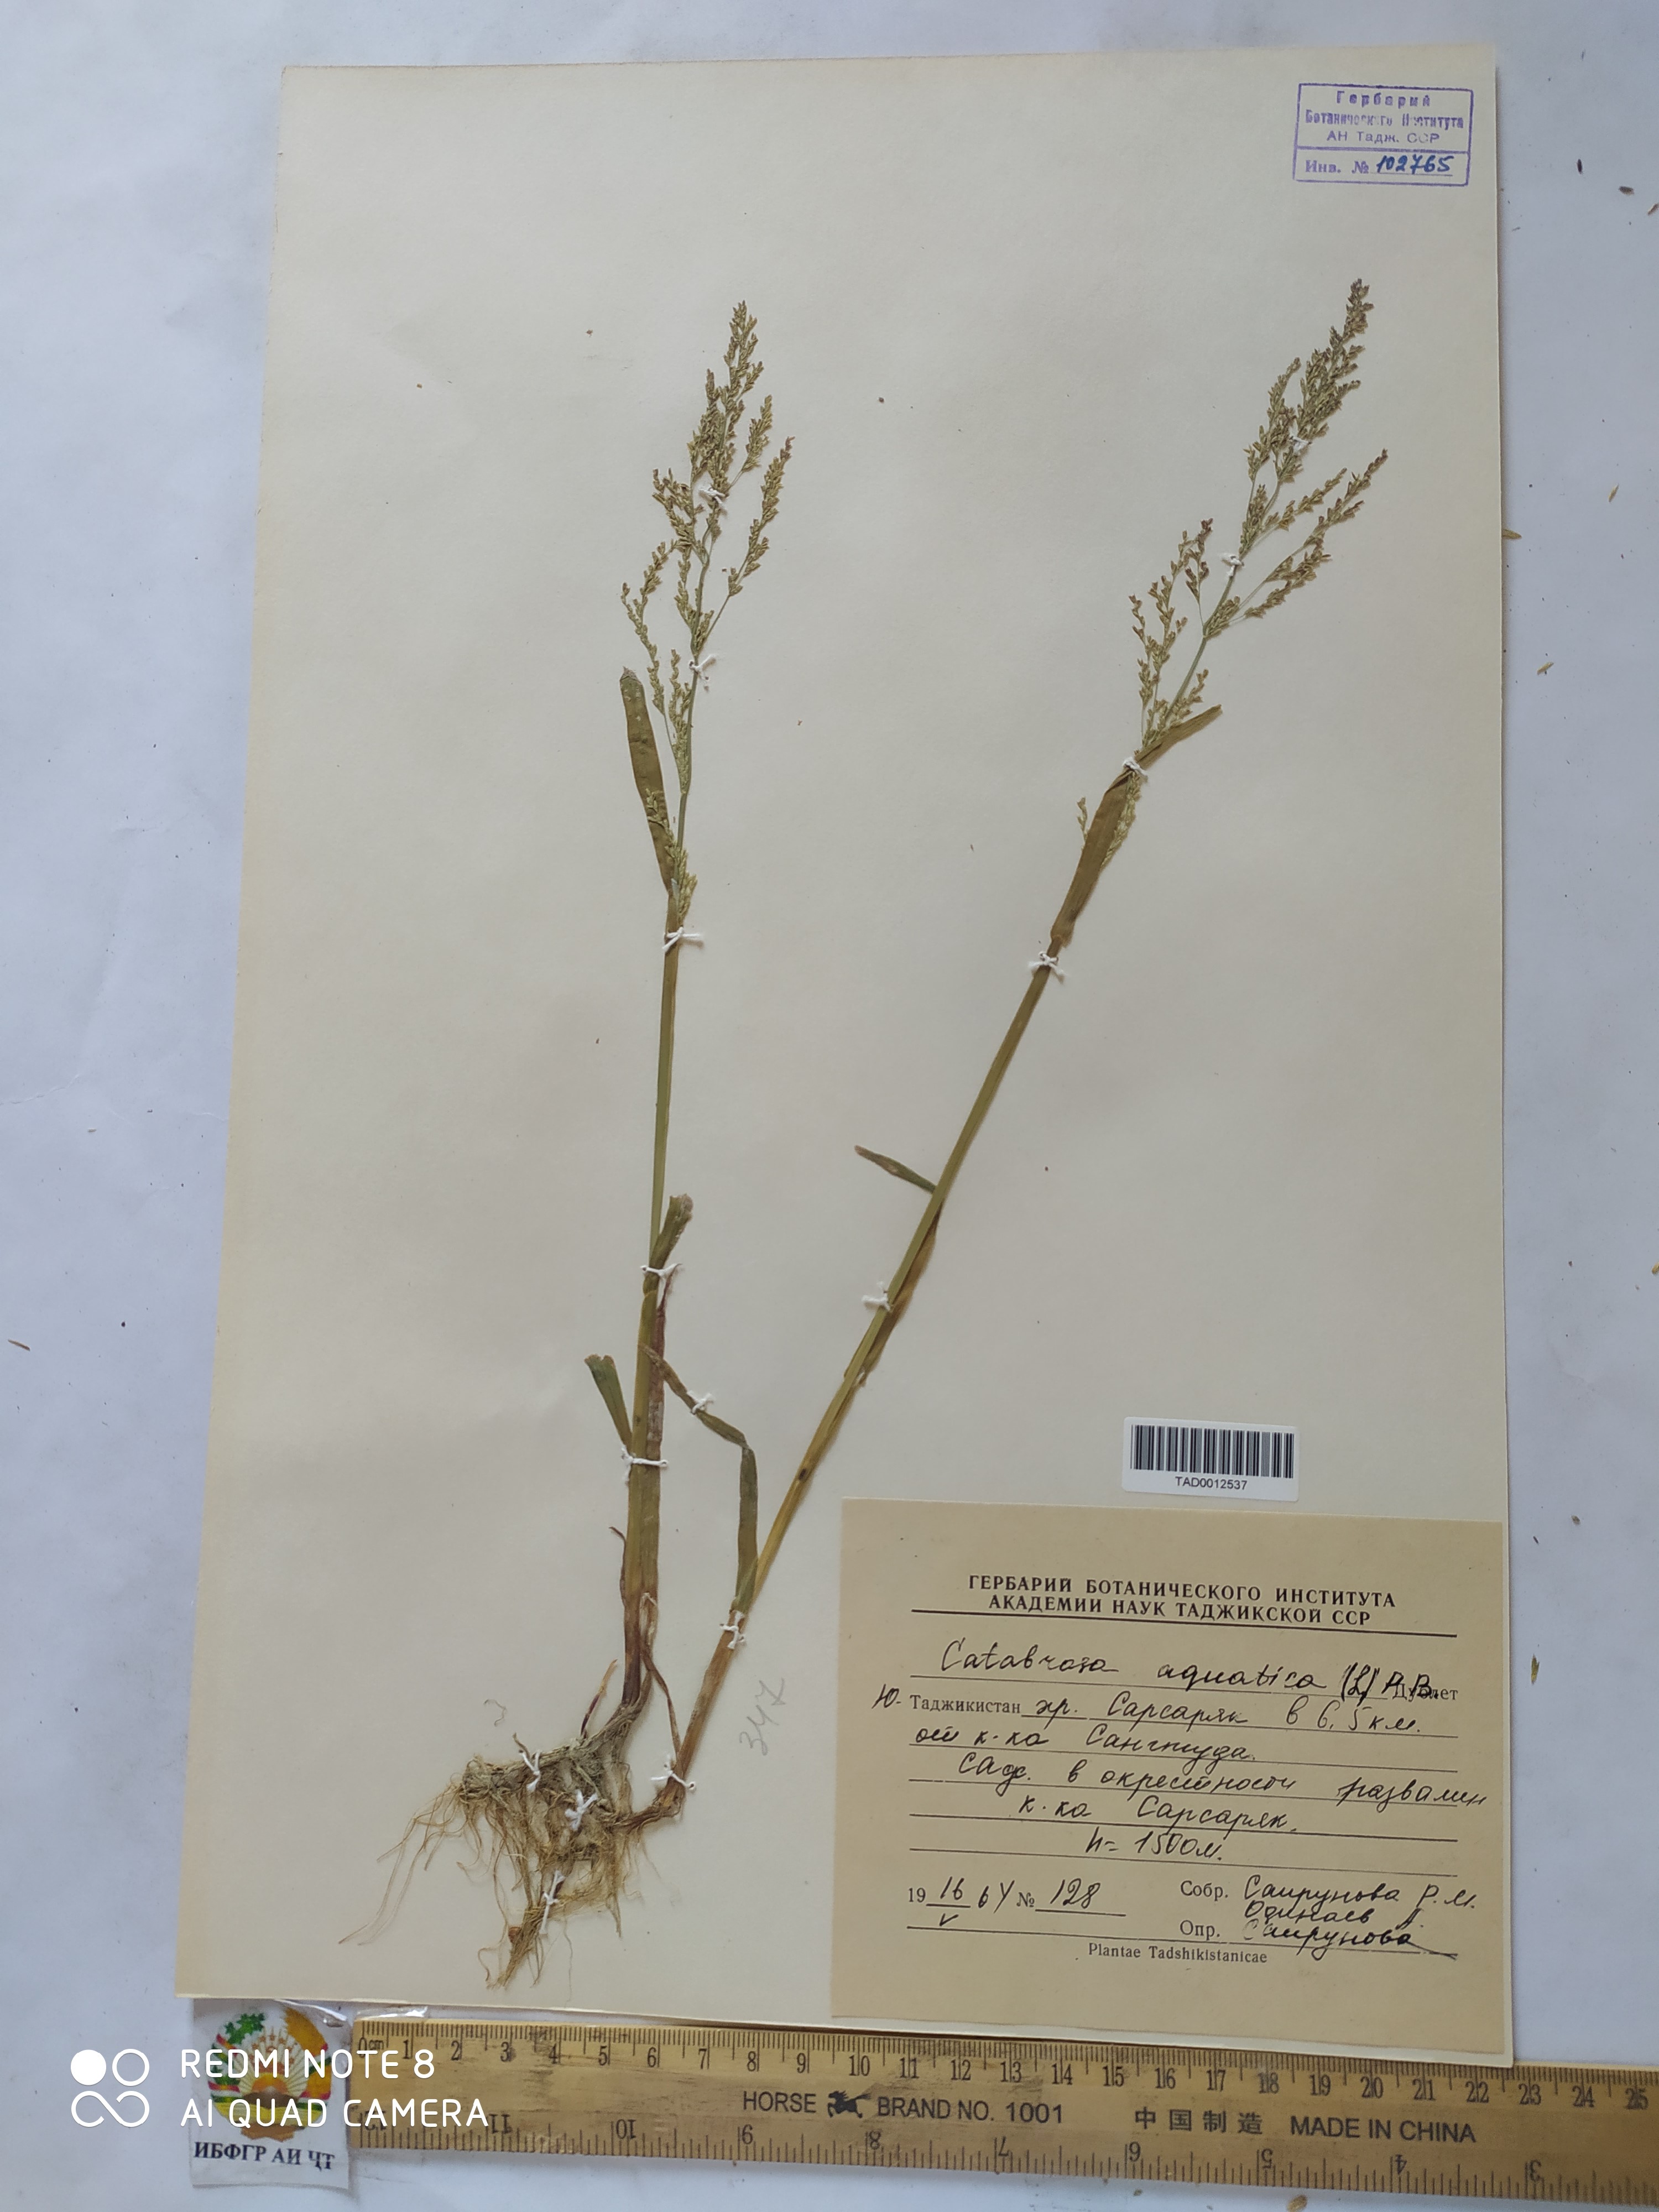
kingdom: Plantae
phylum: Tracheophyta
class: Liliopsida
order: Poales
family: Poaceae
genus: Catabrosa
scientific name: Catabrosa aquatica
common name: Whorl-grass
